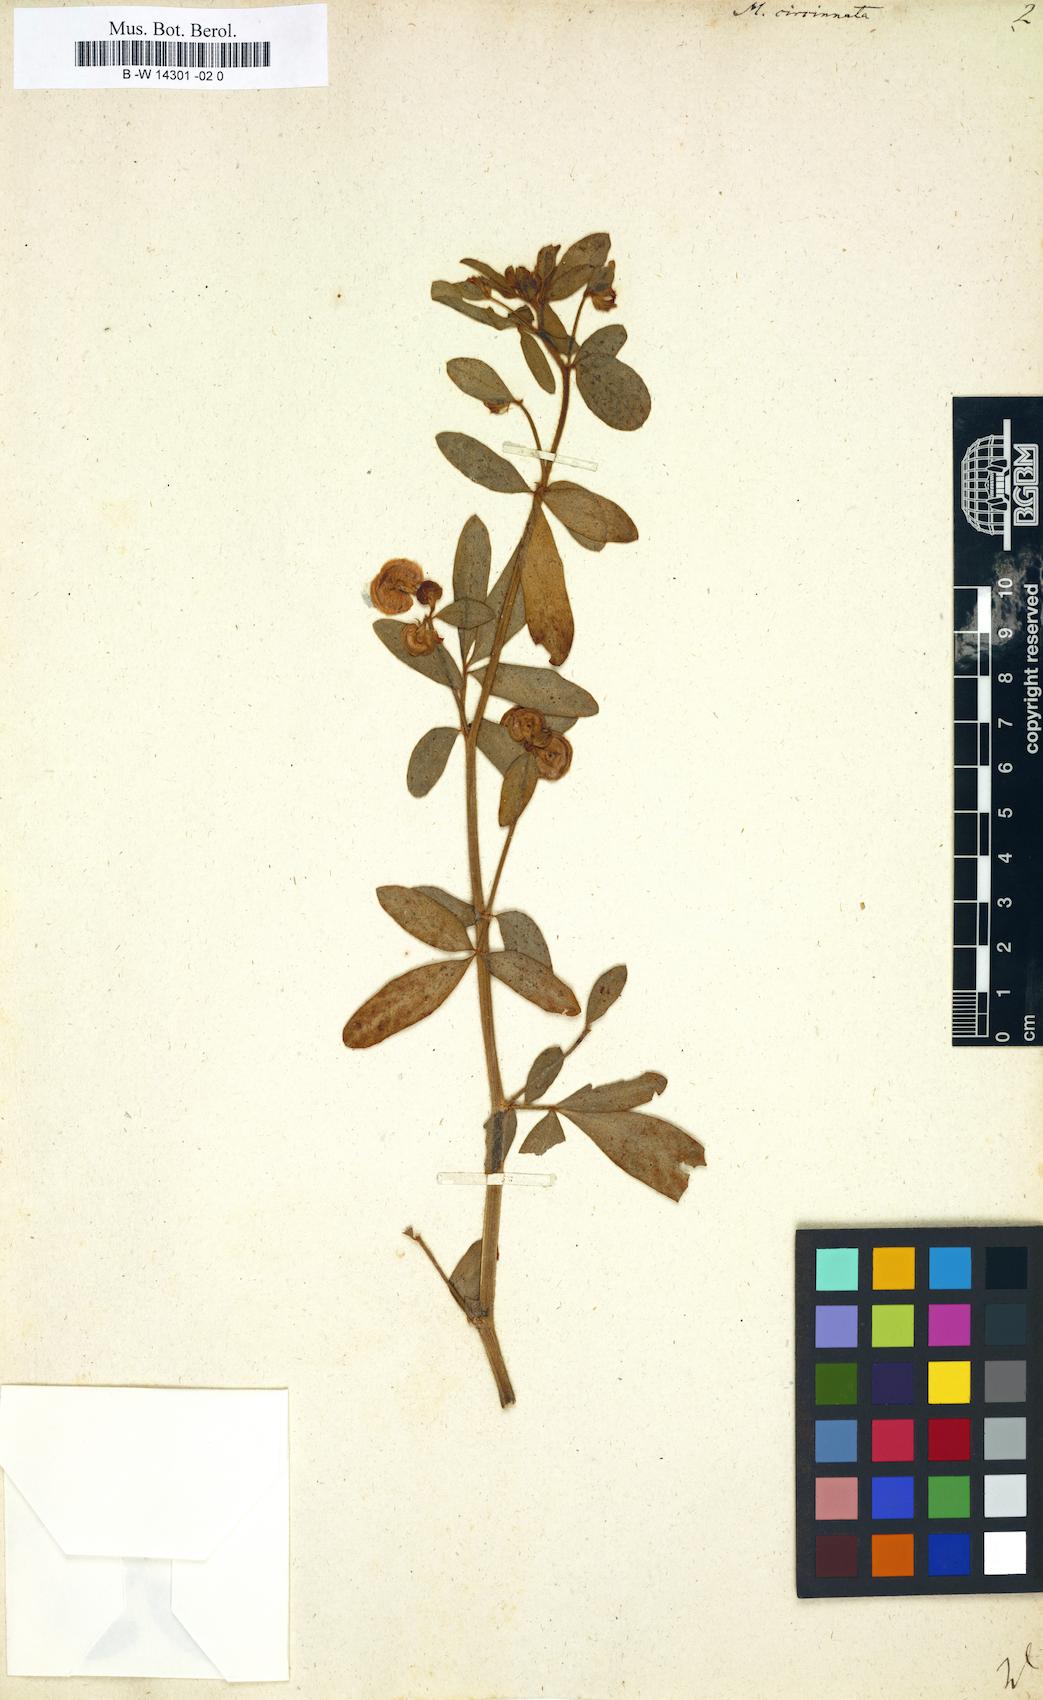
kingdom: Plantae
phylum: Tracheophyta
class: Magnoliopsida
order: Fabales
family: Fabaceae
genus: Anthyllis
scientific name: Anthyllis circinnata
